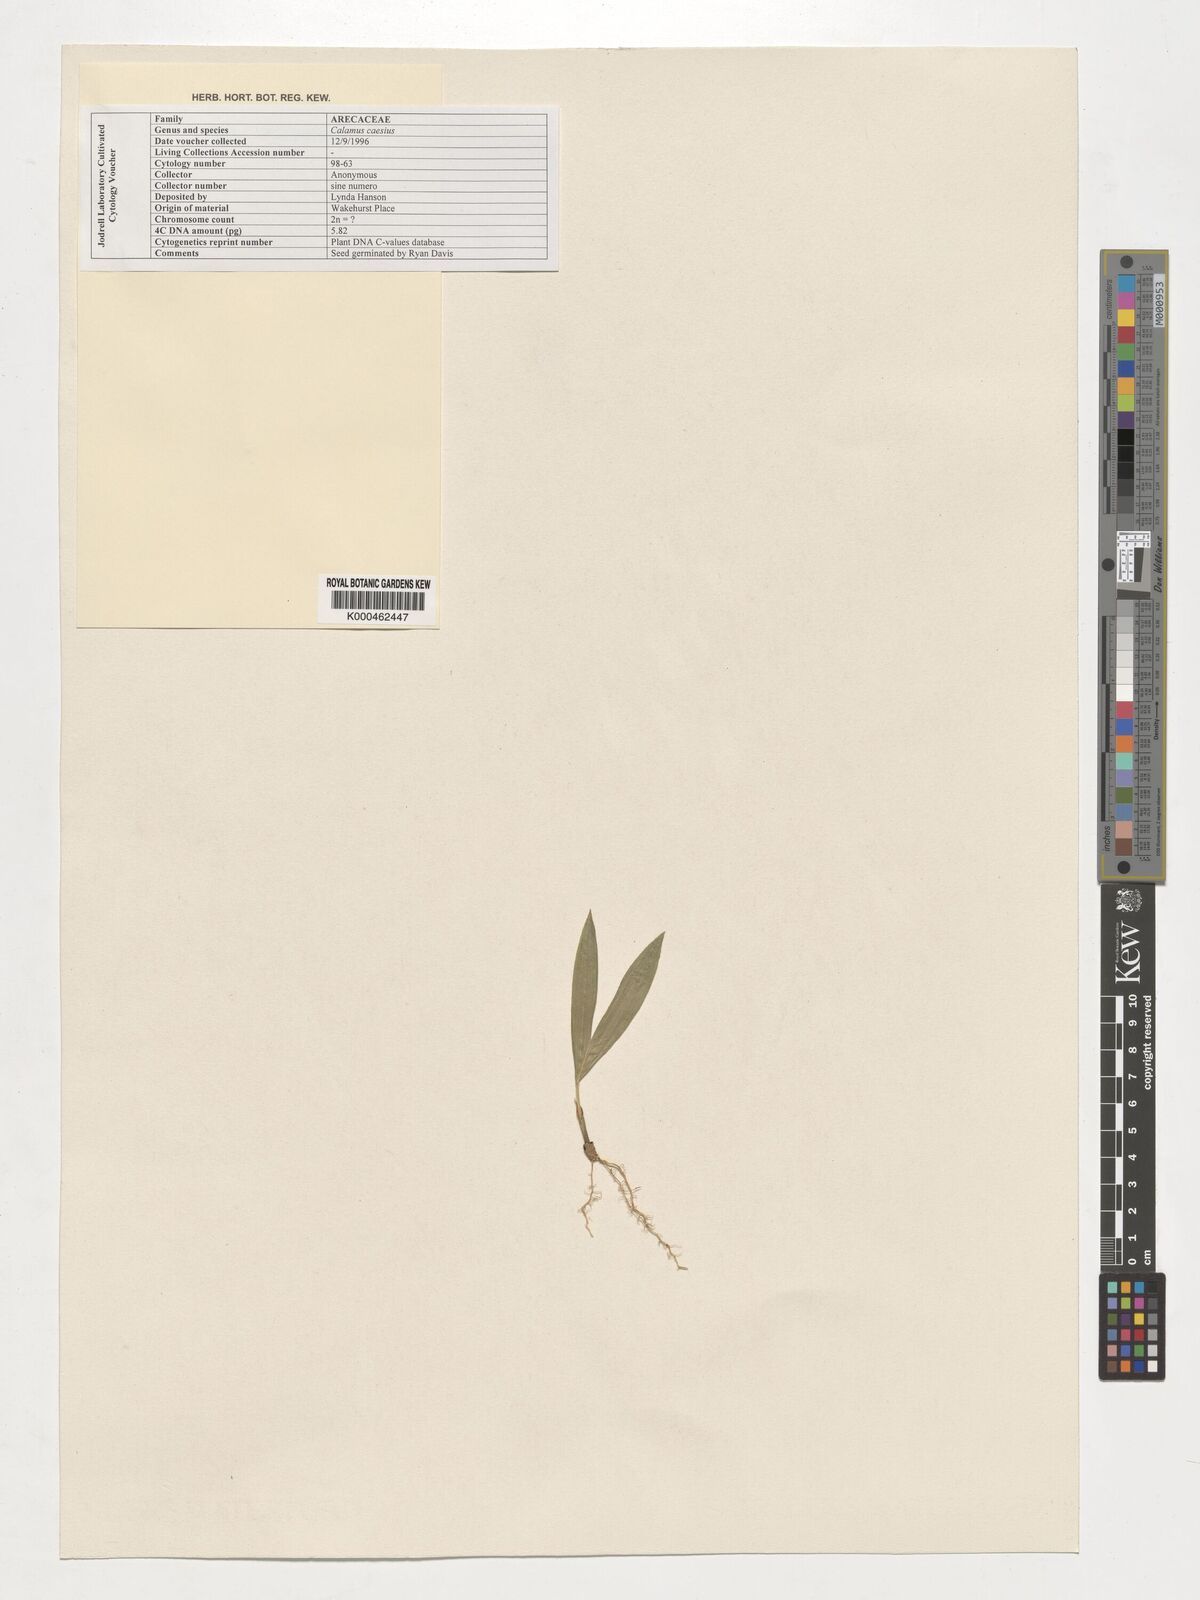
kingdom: Plantae
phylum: Tracheophyta
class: Liliopsida
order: Arecales
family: Arecaceae
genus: Calamus
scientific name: Calamus caesius
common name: Rattan palm
